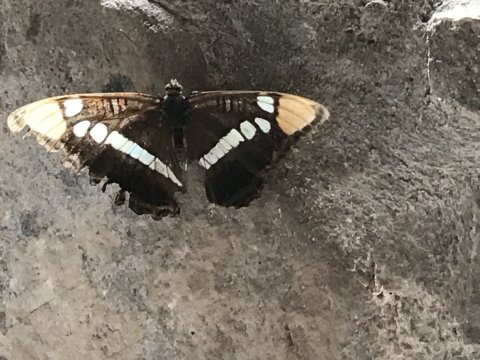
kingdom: Animalia
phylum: Arthropoda
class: Insecta
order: Lepidoptera
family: Nymphalidae
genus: Limenitis
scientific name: Limenitis bredowii
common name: Arizona Sister
